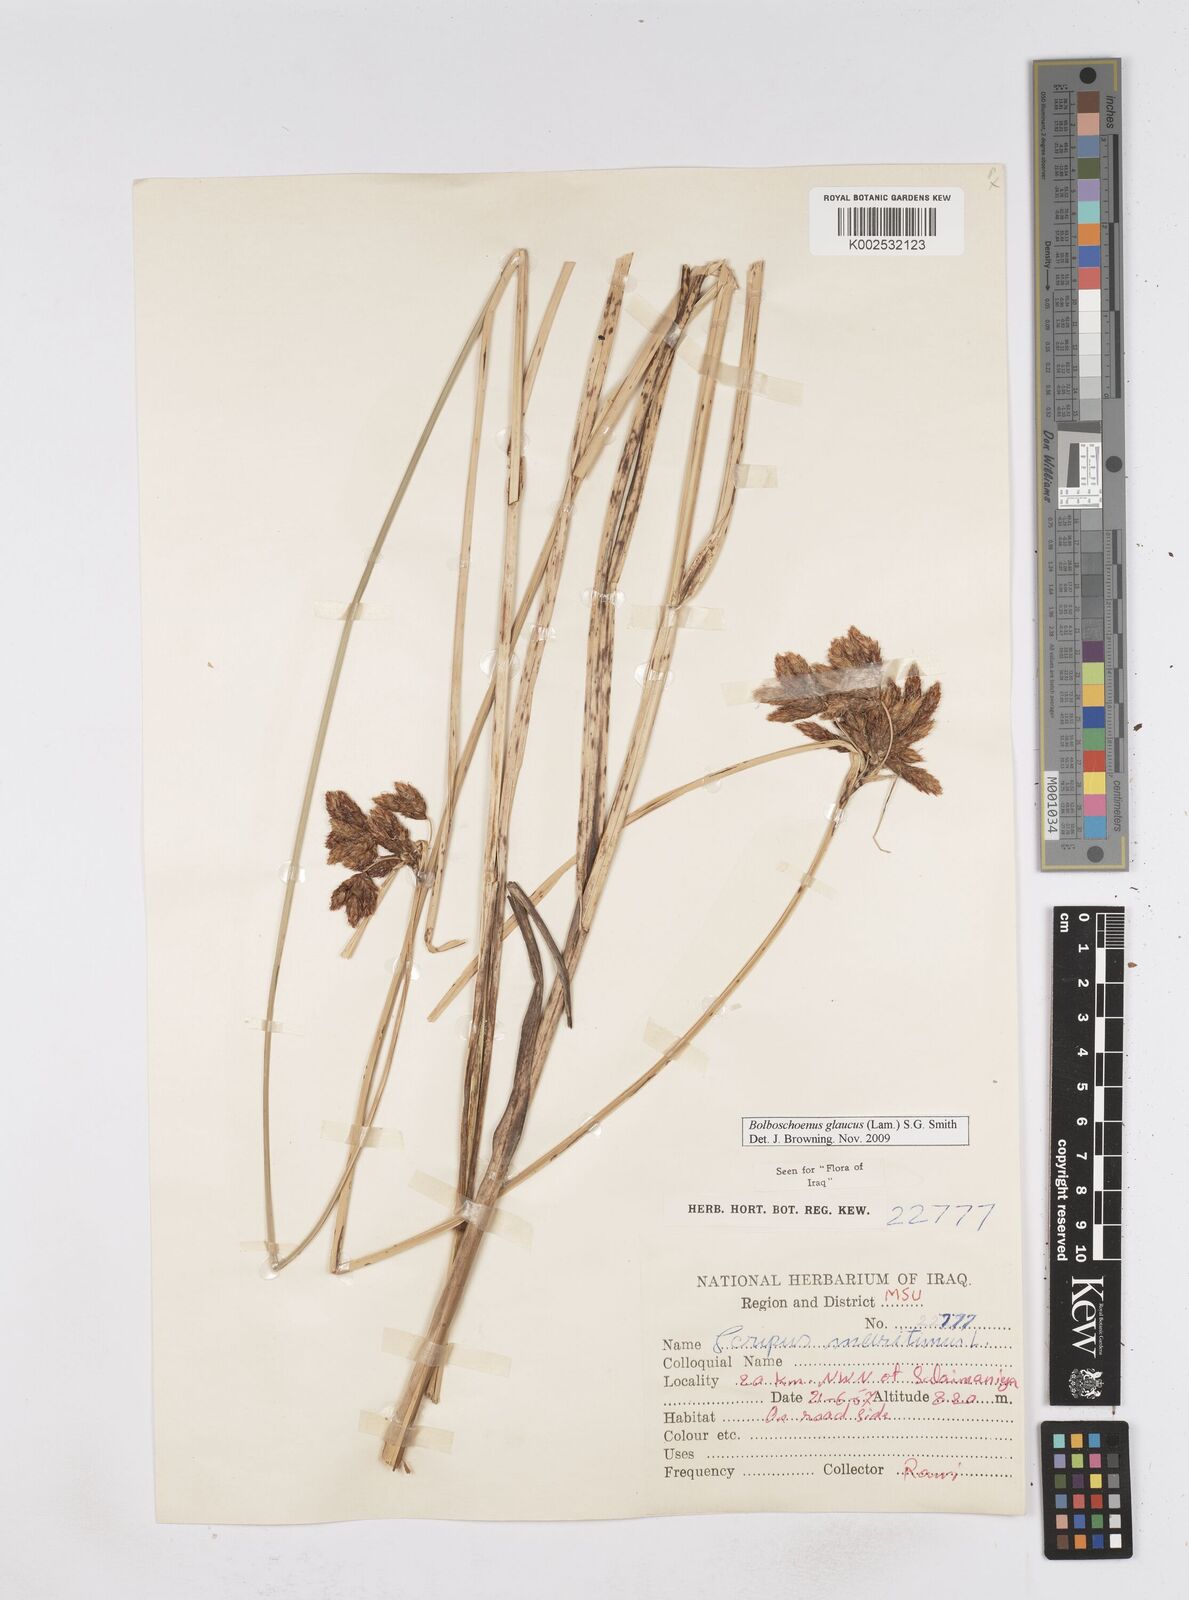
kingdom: Plantae
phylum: Tracheophyta
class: Liliopsida
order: Poales
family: Cyperaceae
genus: Bolboschoenus
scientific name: Bolboschoenus maritimus
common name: Sea club-rush
